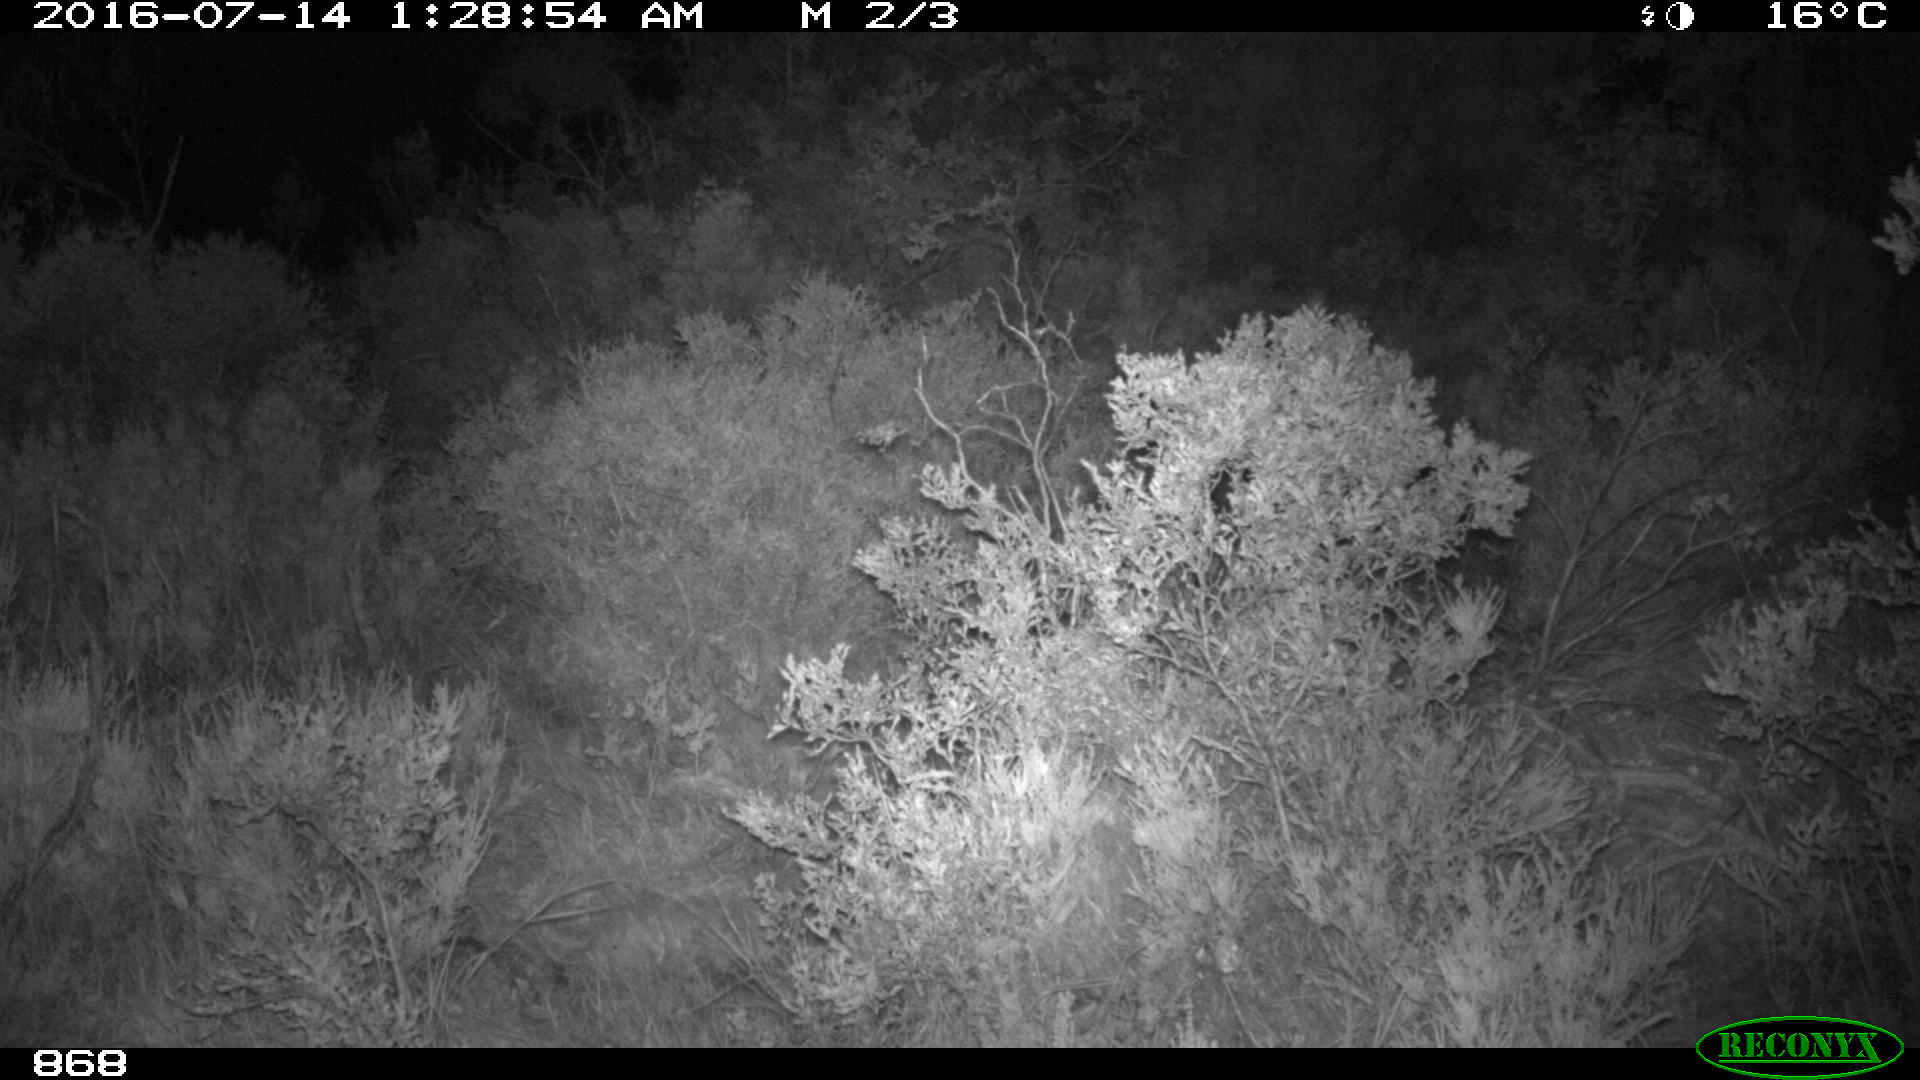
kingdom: Animalia
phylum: Chordata
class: Mammalia
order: Perissodactyla
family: Equidae
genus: Equus
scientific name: Equus caballus
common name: Horse
